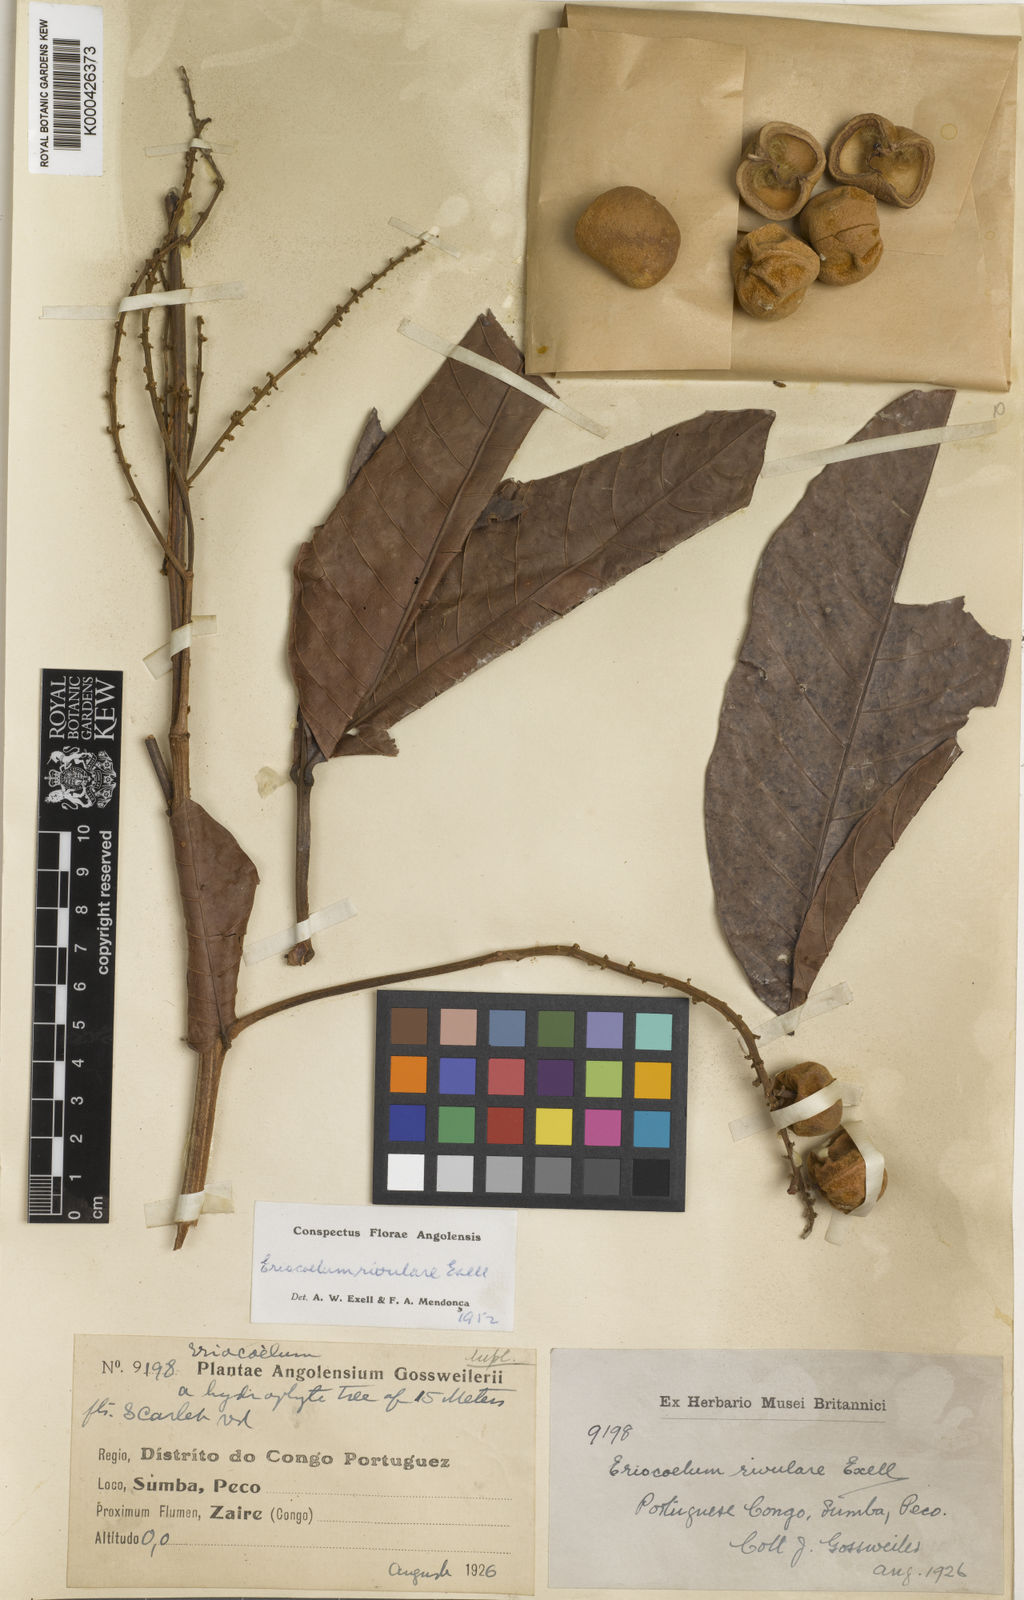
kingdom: Plantae
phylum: Tracheophyta
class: Magnoliopsida
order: Sapindales
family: Sapindaceae
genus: Eriocoelum
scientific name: Eriocoelum rivulare
